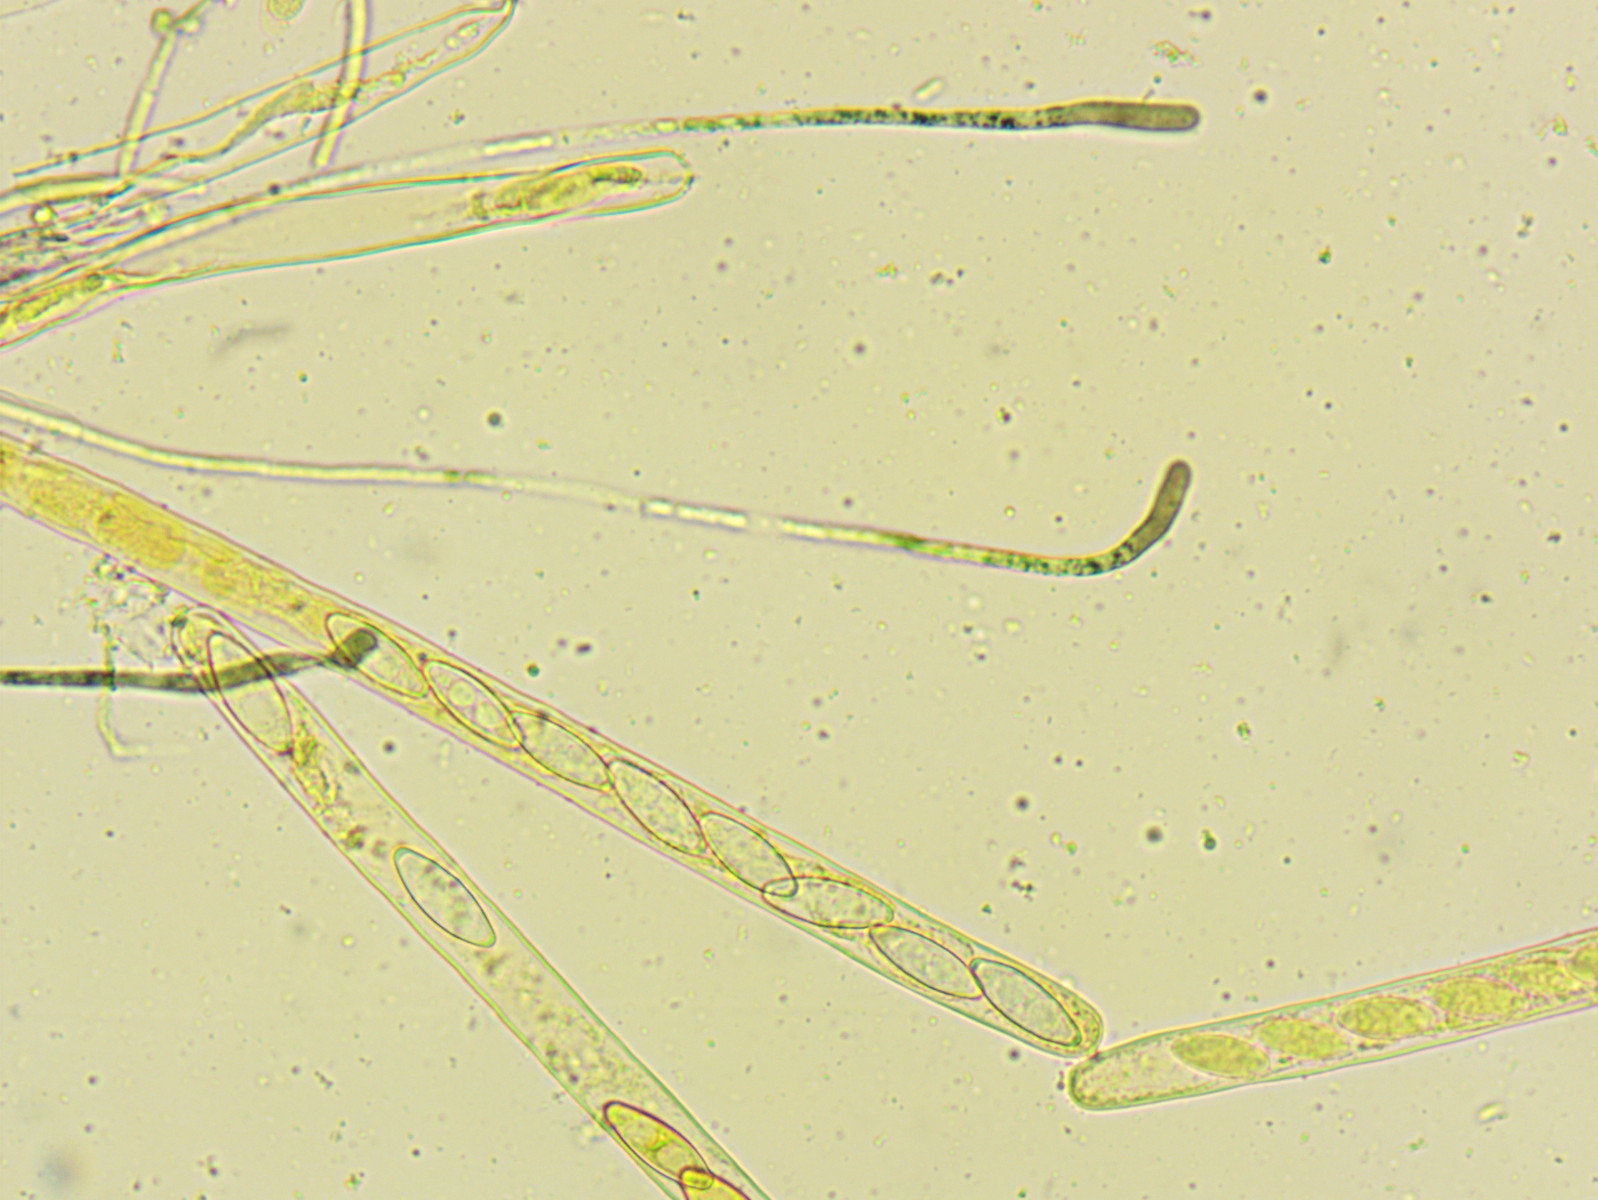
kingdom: Fungi
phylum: Ascomycota
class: Pezizomycetes
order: Pezizales
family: Pyronemataceae
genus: Byssonectria
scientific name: Byssonectria terrestris
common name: hjortebæger
